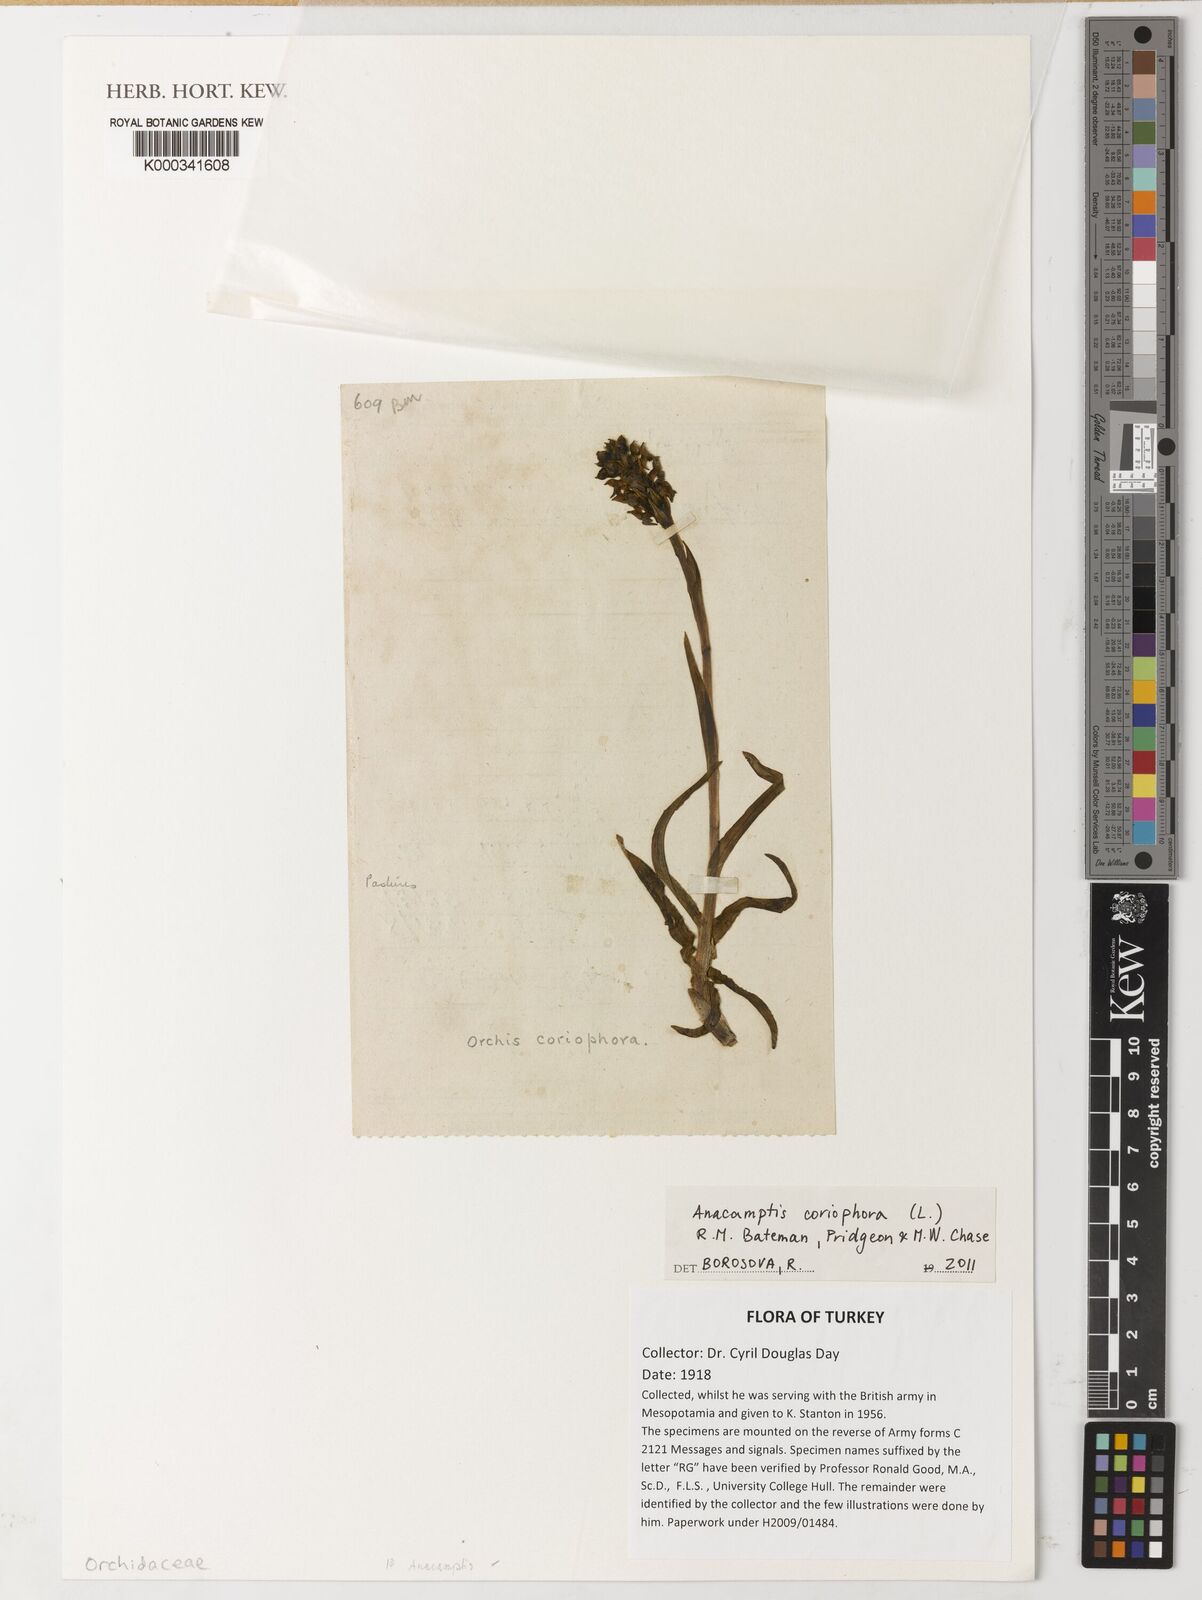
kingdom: Plantae
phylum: Tracheophyta
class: Liliopsida
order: Asparagales
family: Orchidaceae
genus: Anacamptis
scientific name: Anacamptis coriophora
